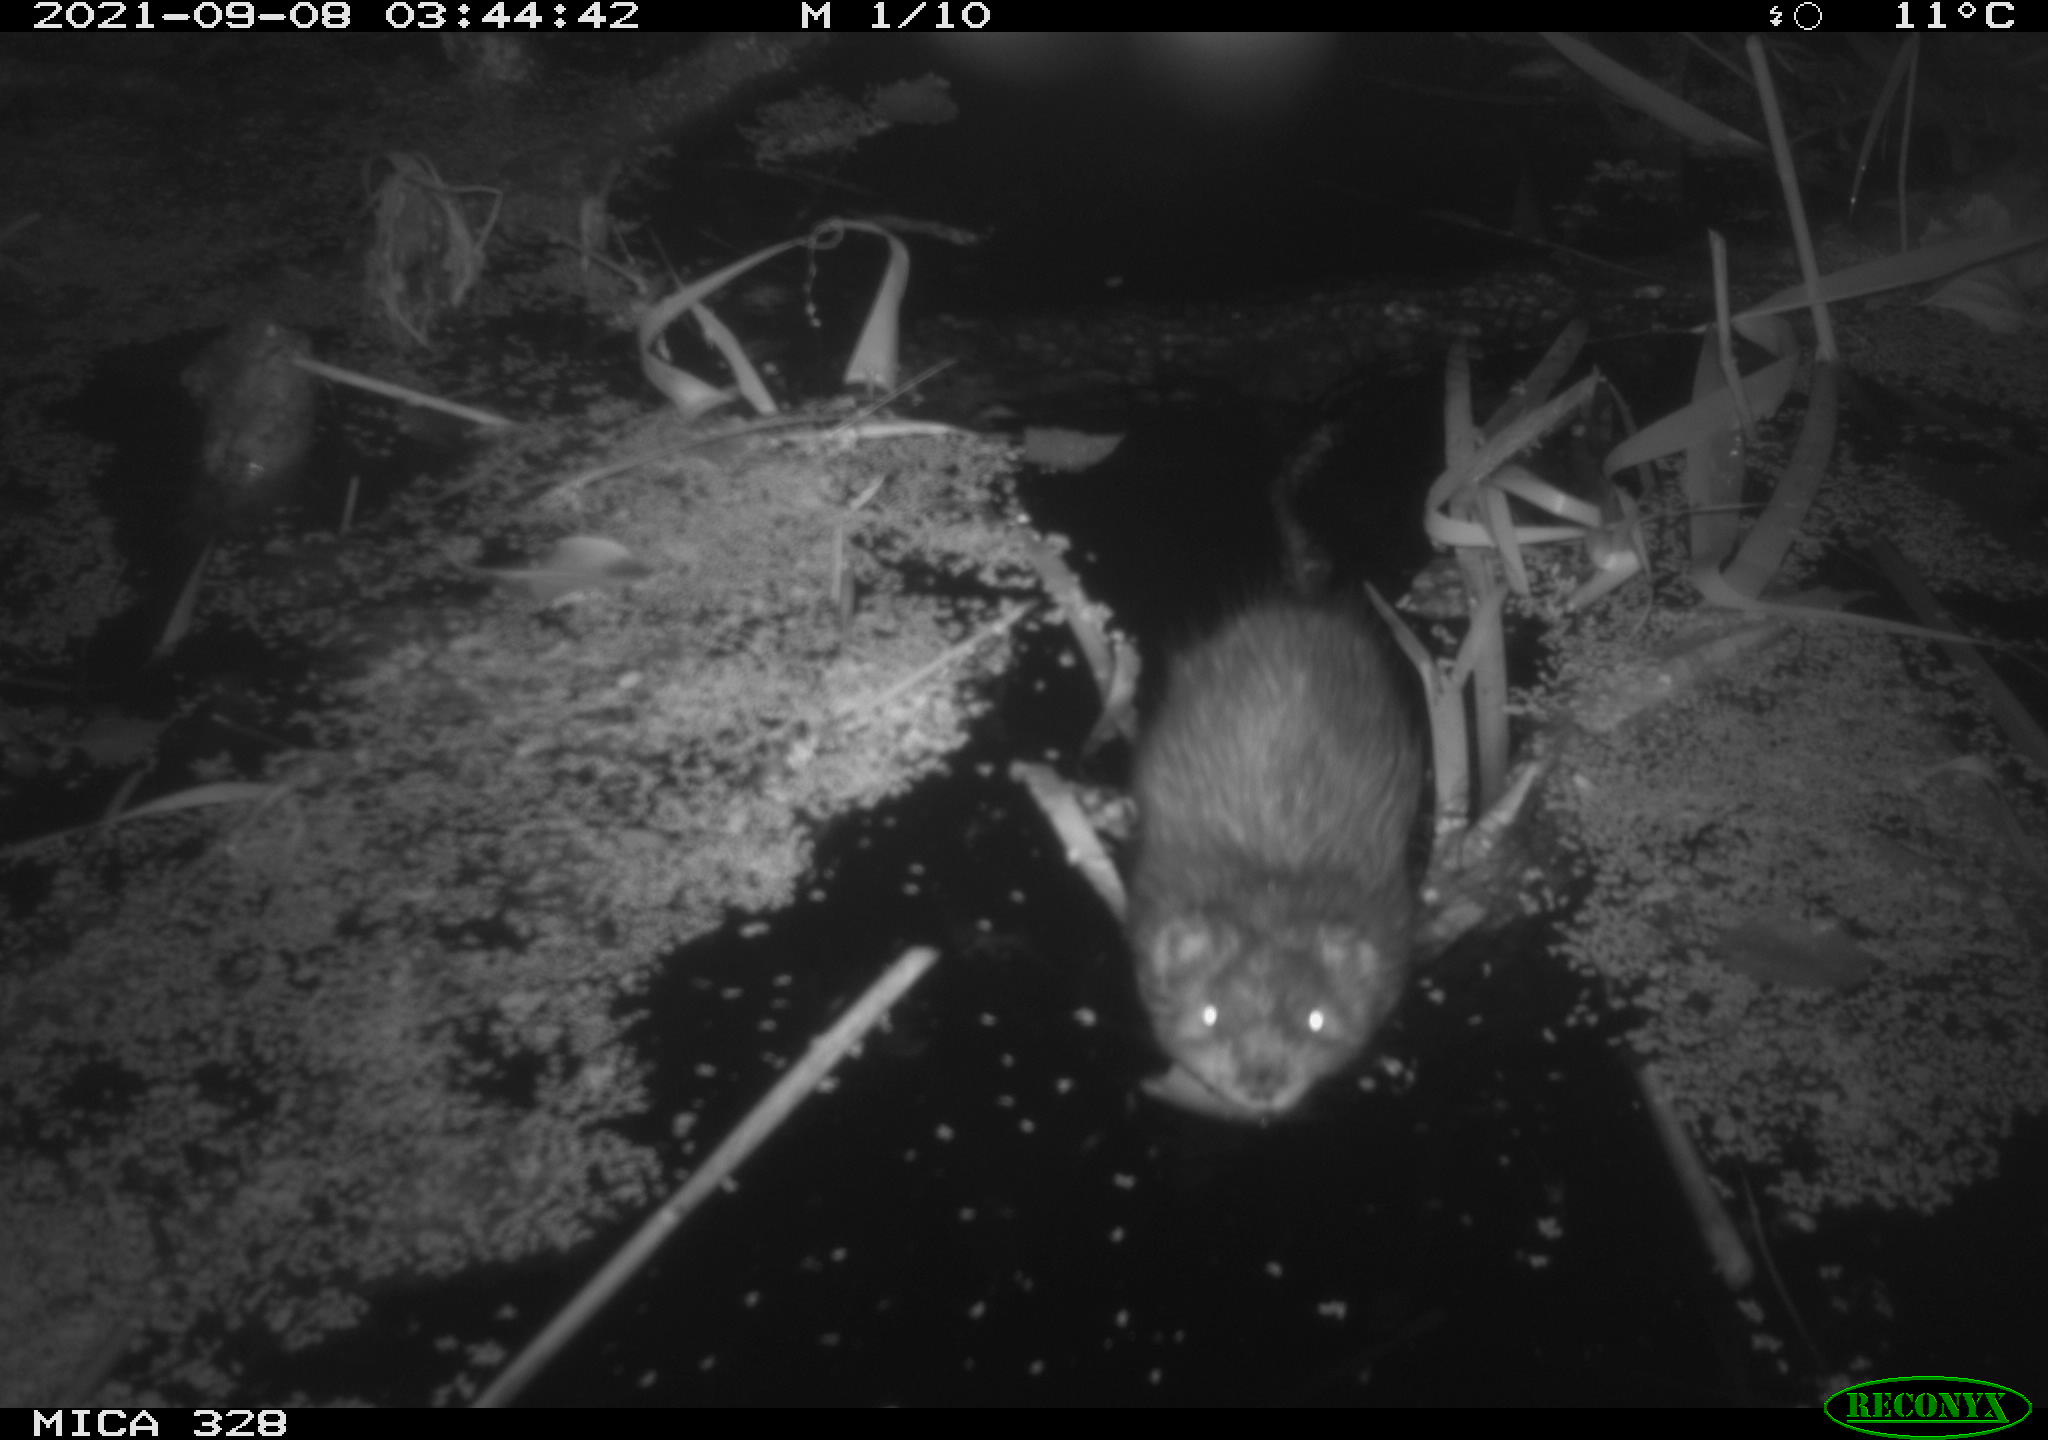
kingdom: Animalia
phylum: Chordata
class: Mammalia
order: Rodentia
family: Cricetidae
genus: Ondatra
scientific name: Ondatra zibethicus
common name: Muskrat
